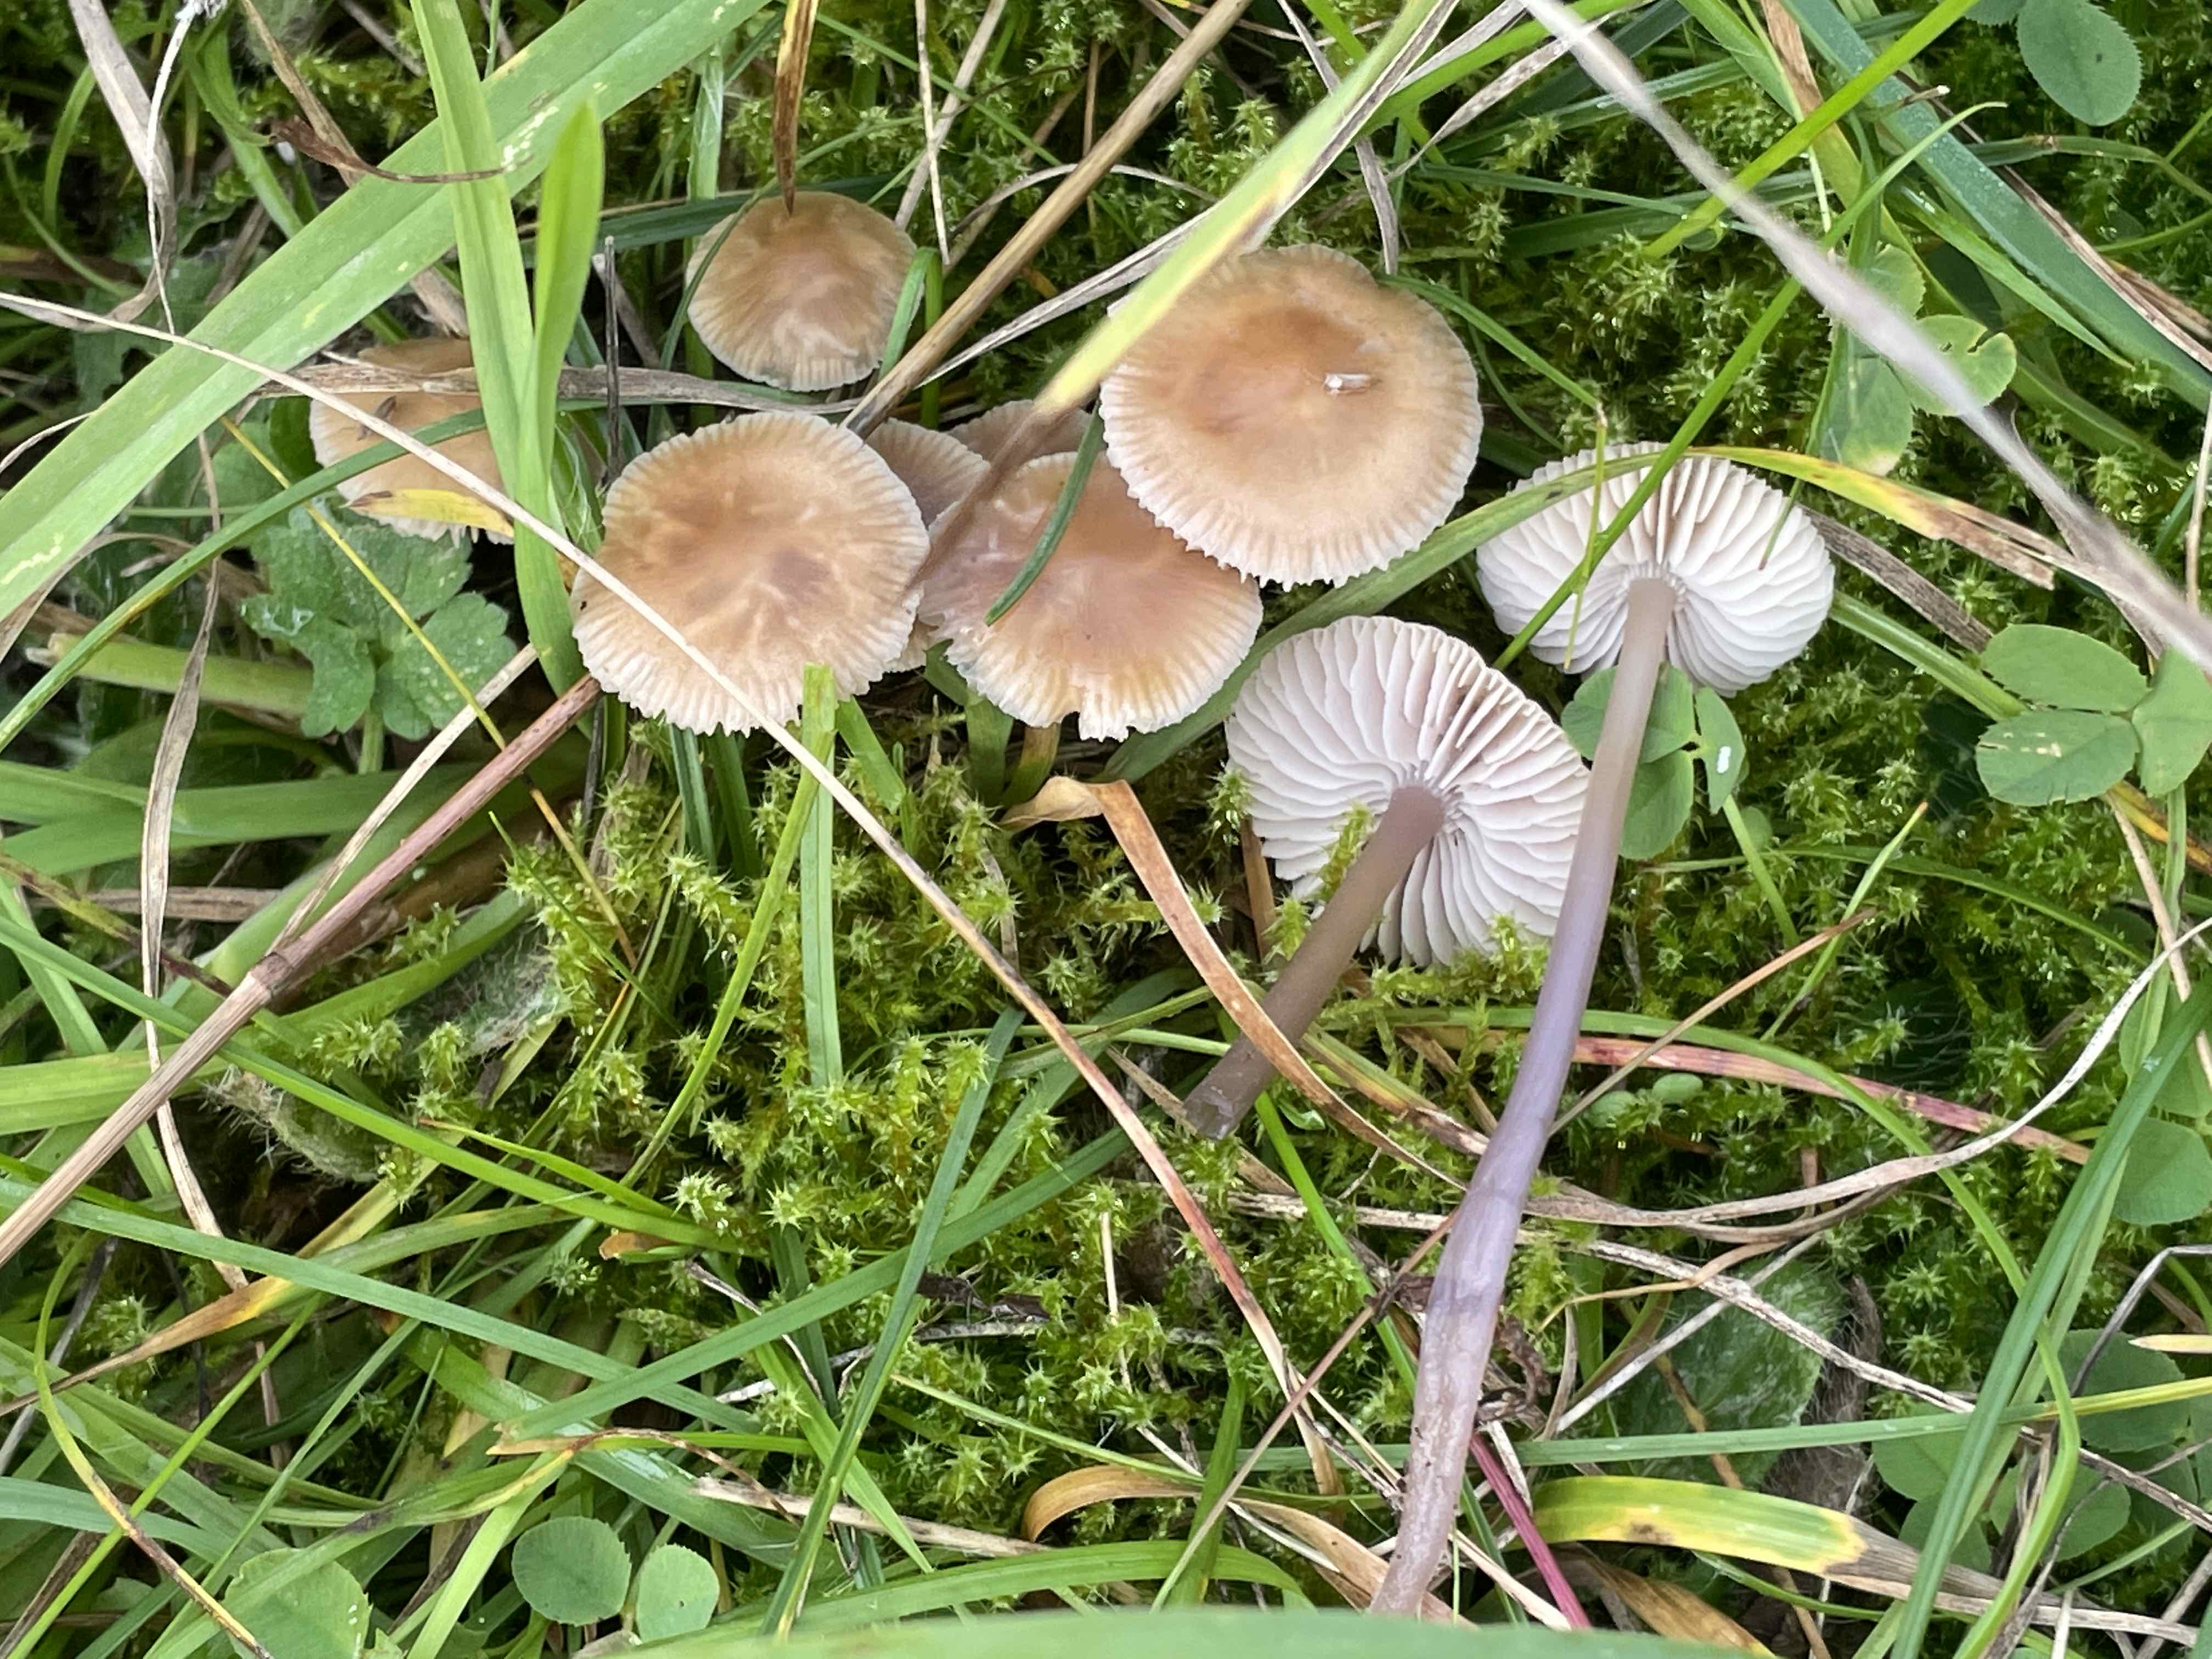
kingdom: Fungi
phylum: Basidiomycota
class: Agaricomycetes
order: Agaricales
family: Mycenaceae
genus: Mycena
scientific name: Mycena luteovariegata
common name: lillagul huesvamp
